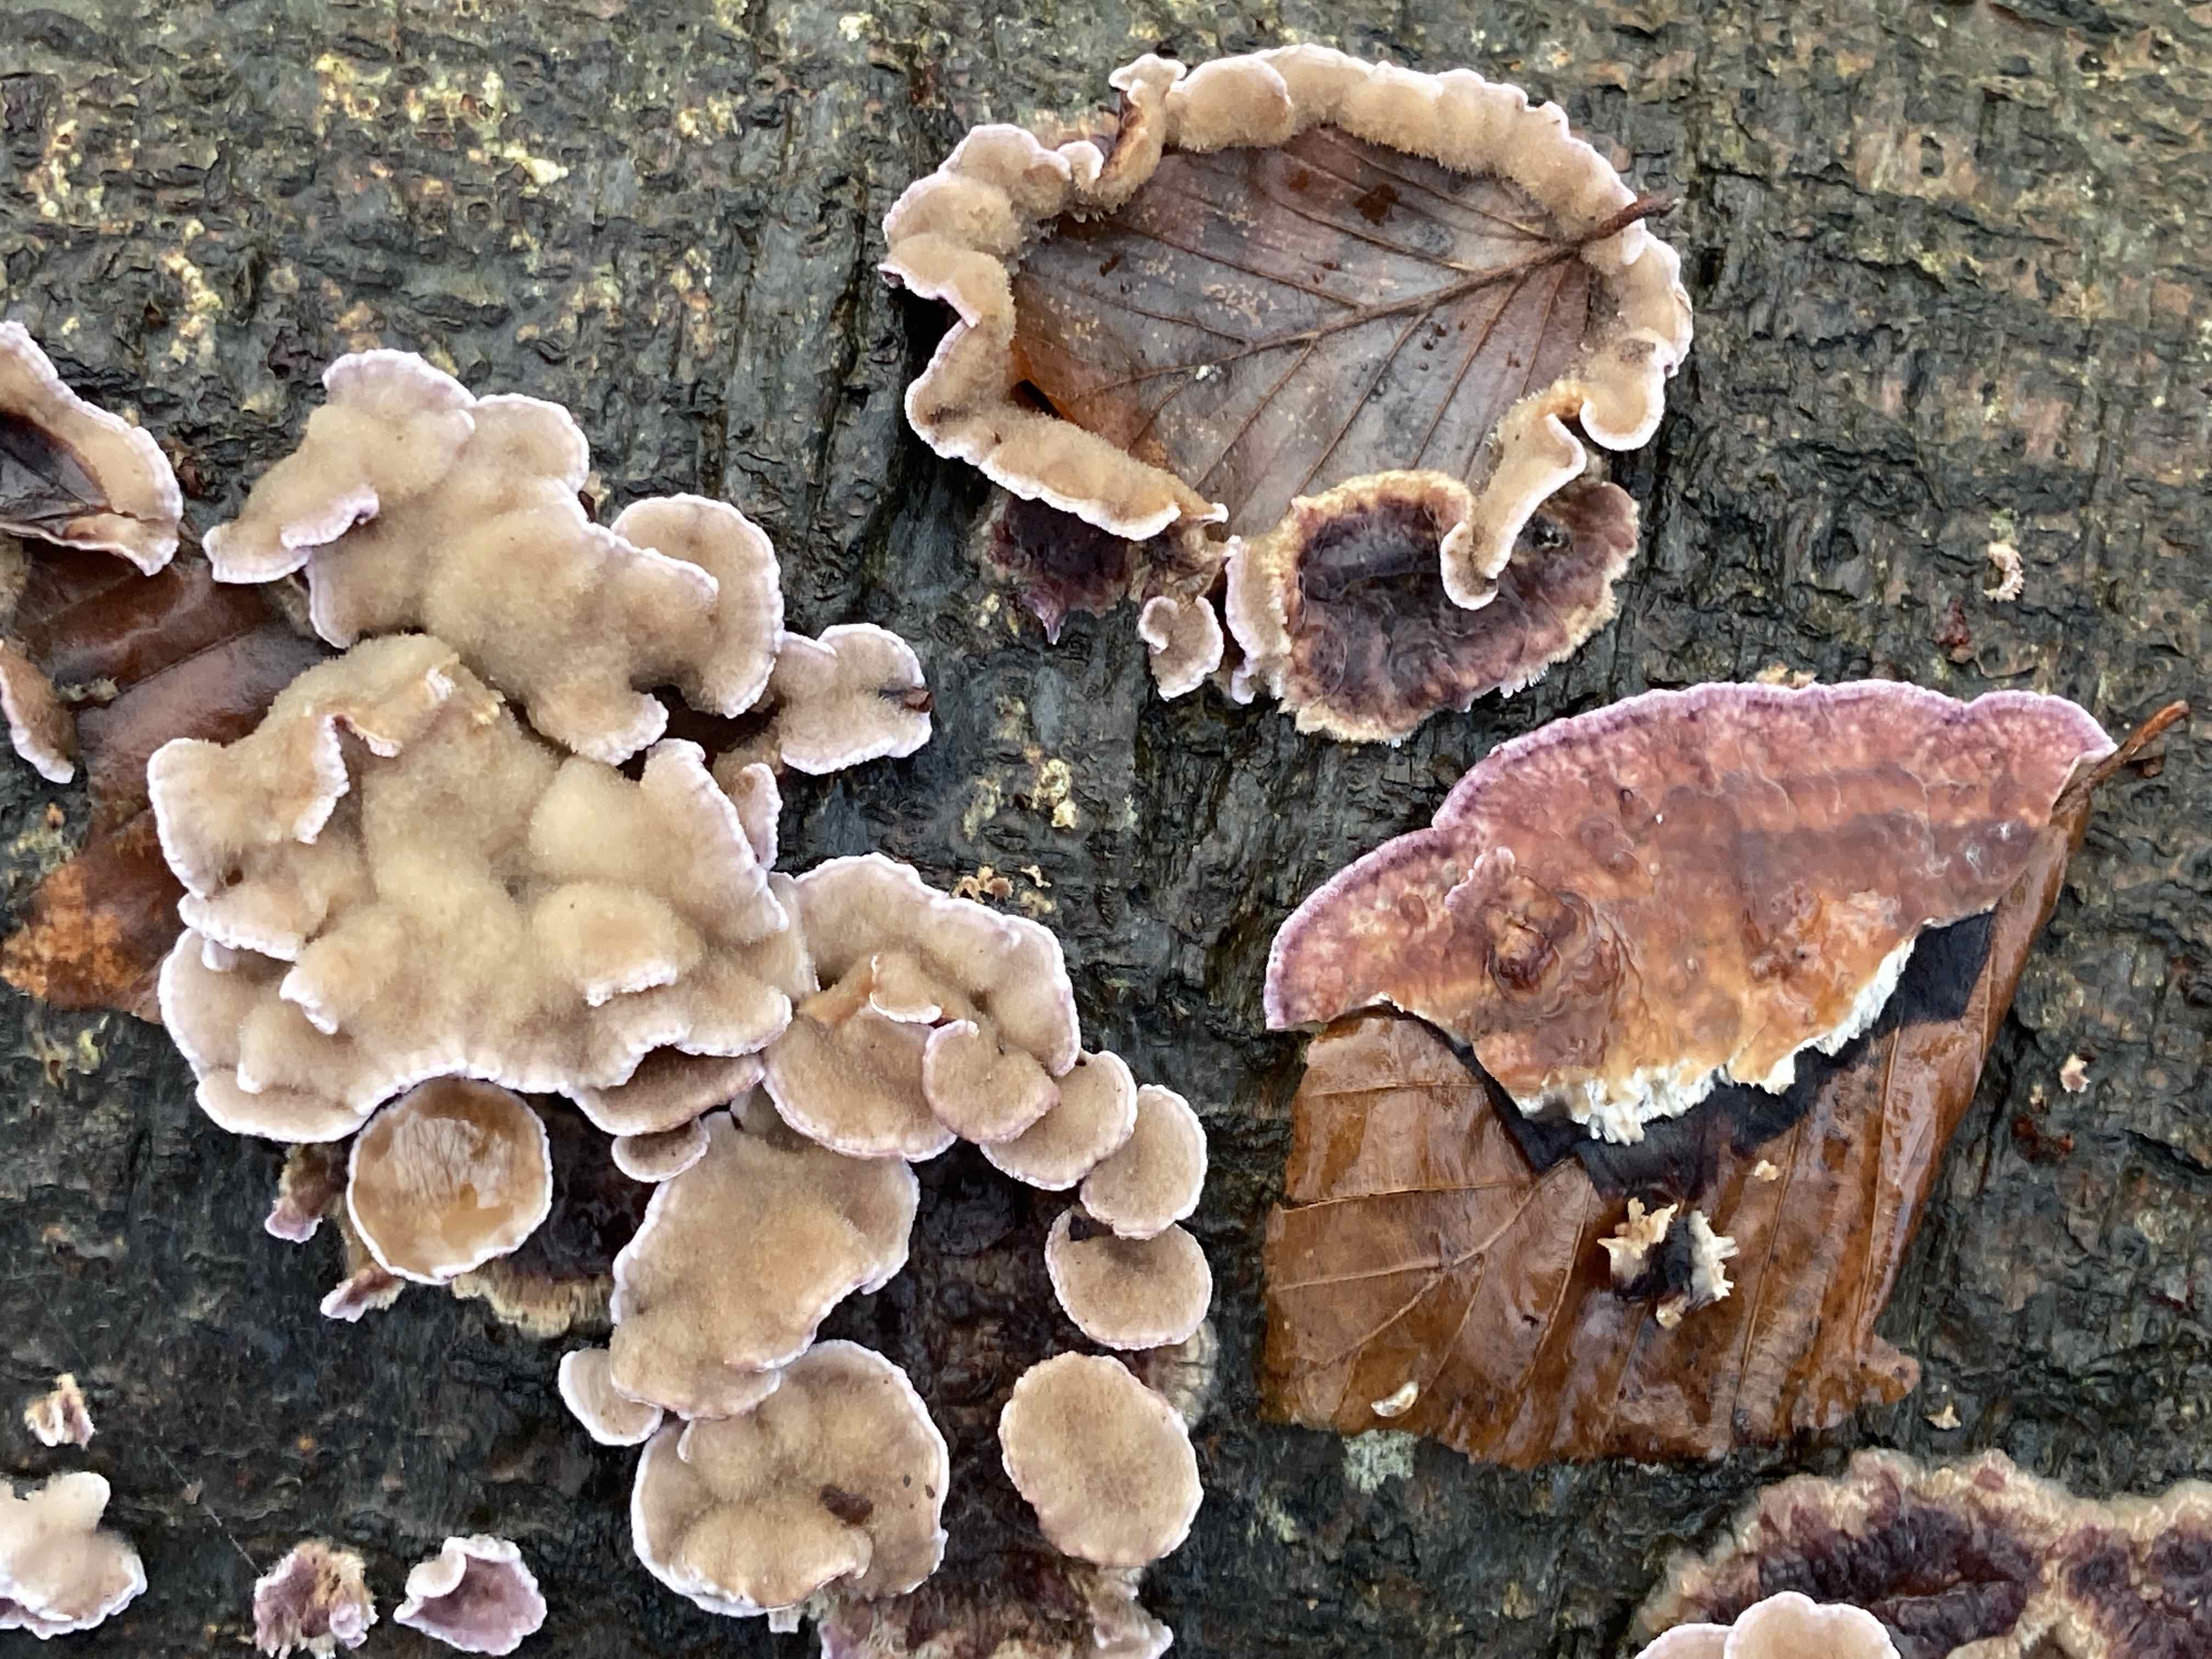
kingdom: Fungi
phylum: Basidiomycota
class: Agaricomycetes
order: Agaricales
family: Cyphellaceae
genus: Chondrostereum
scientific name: Chondrostereum purpureum
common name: purpurlædersvamp
